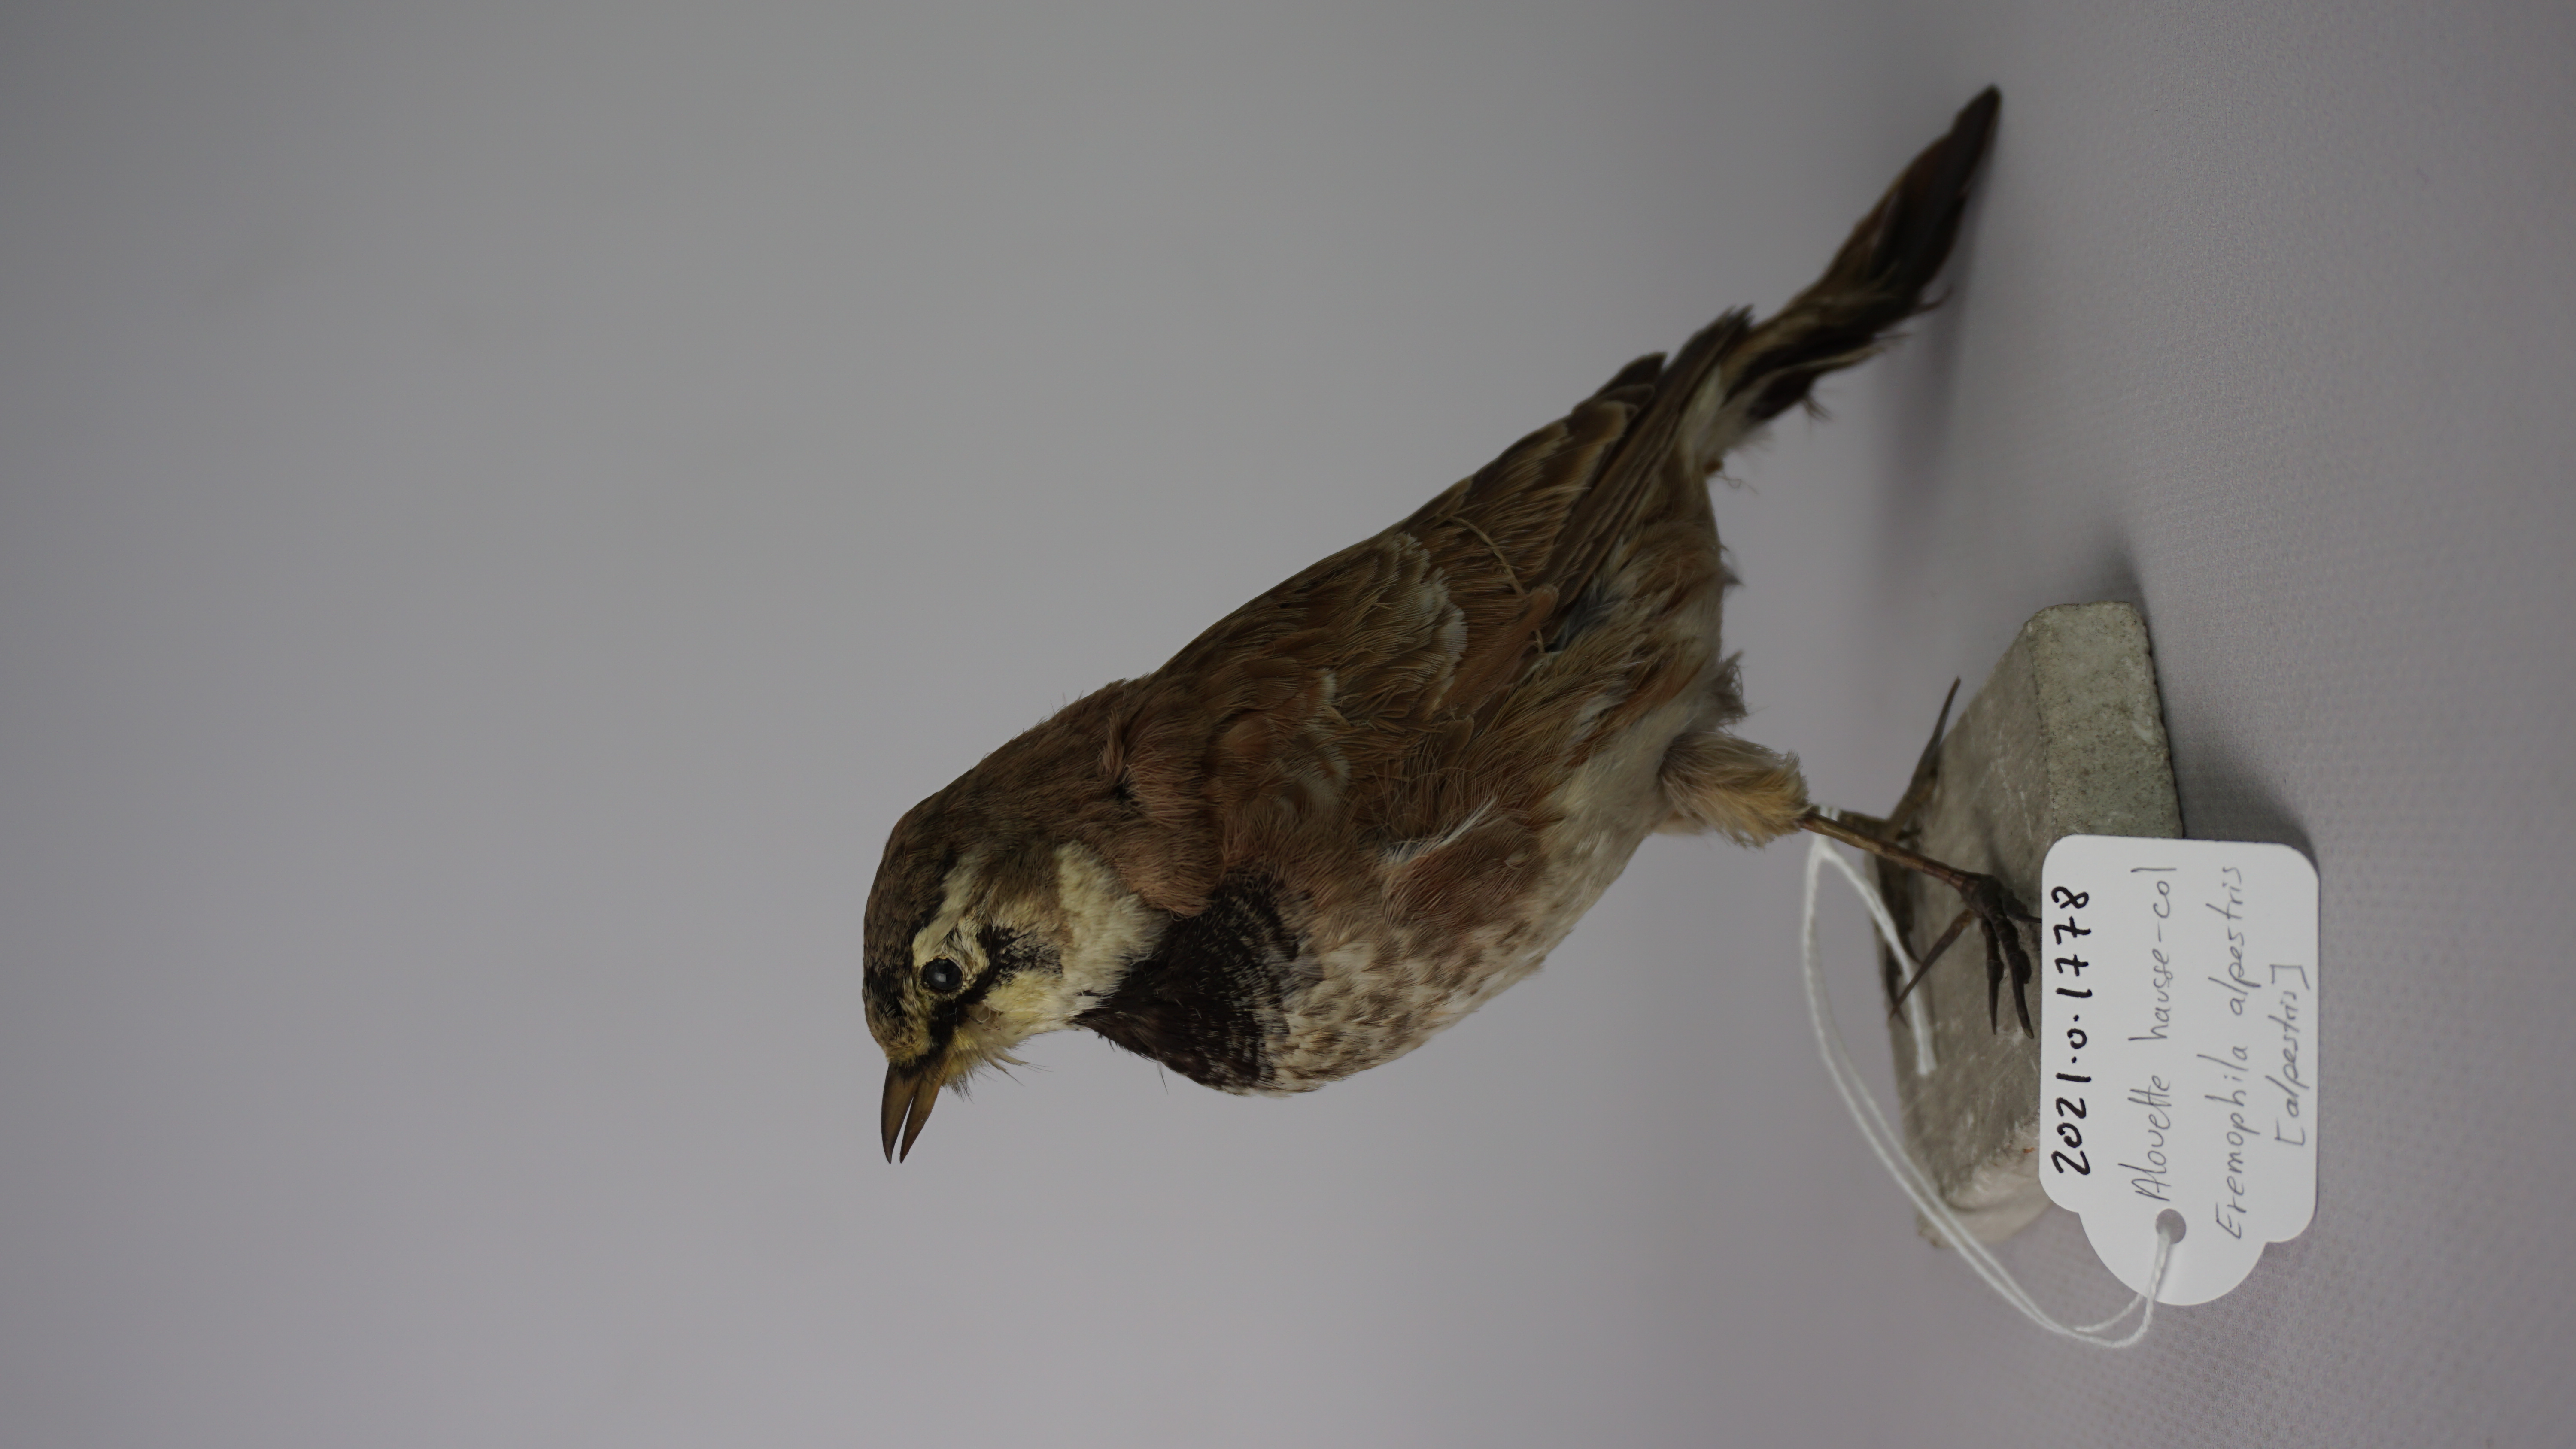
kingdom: Animalia
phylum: Chordata
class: Aves
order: Passeriformes
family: Alaudidae
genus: Eremophila
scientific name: Eremophila alpestris
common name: Horned lark
